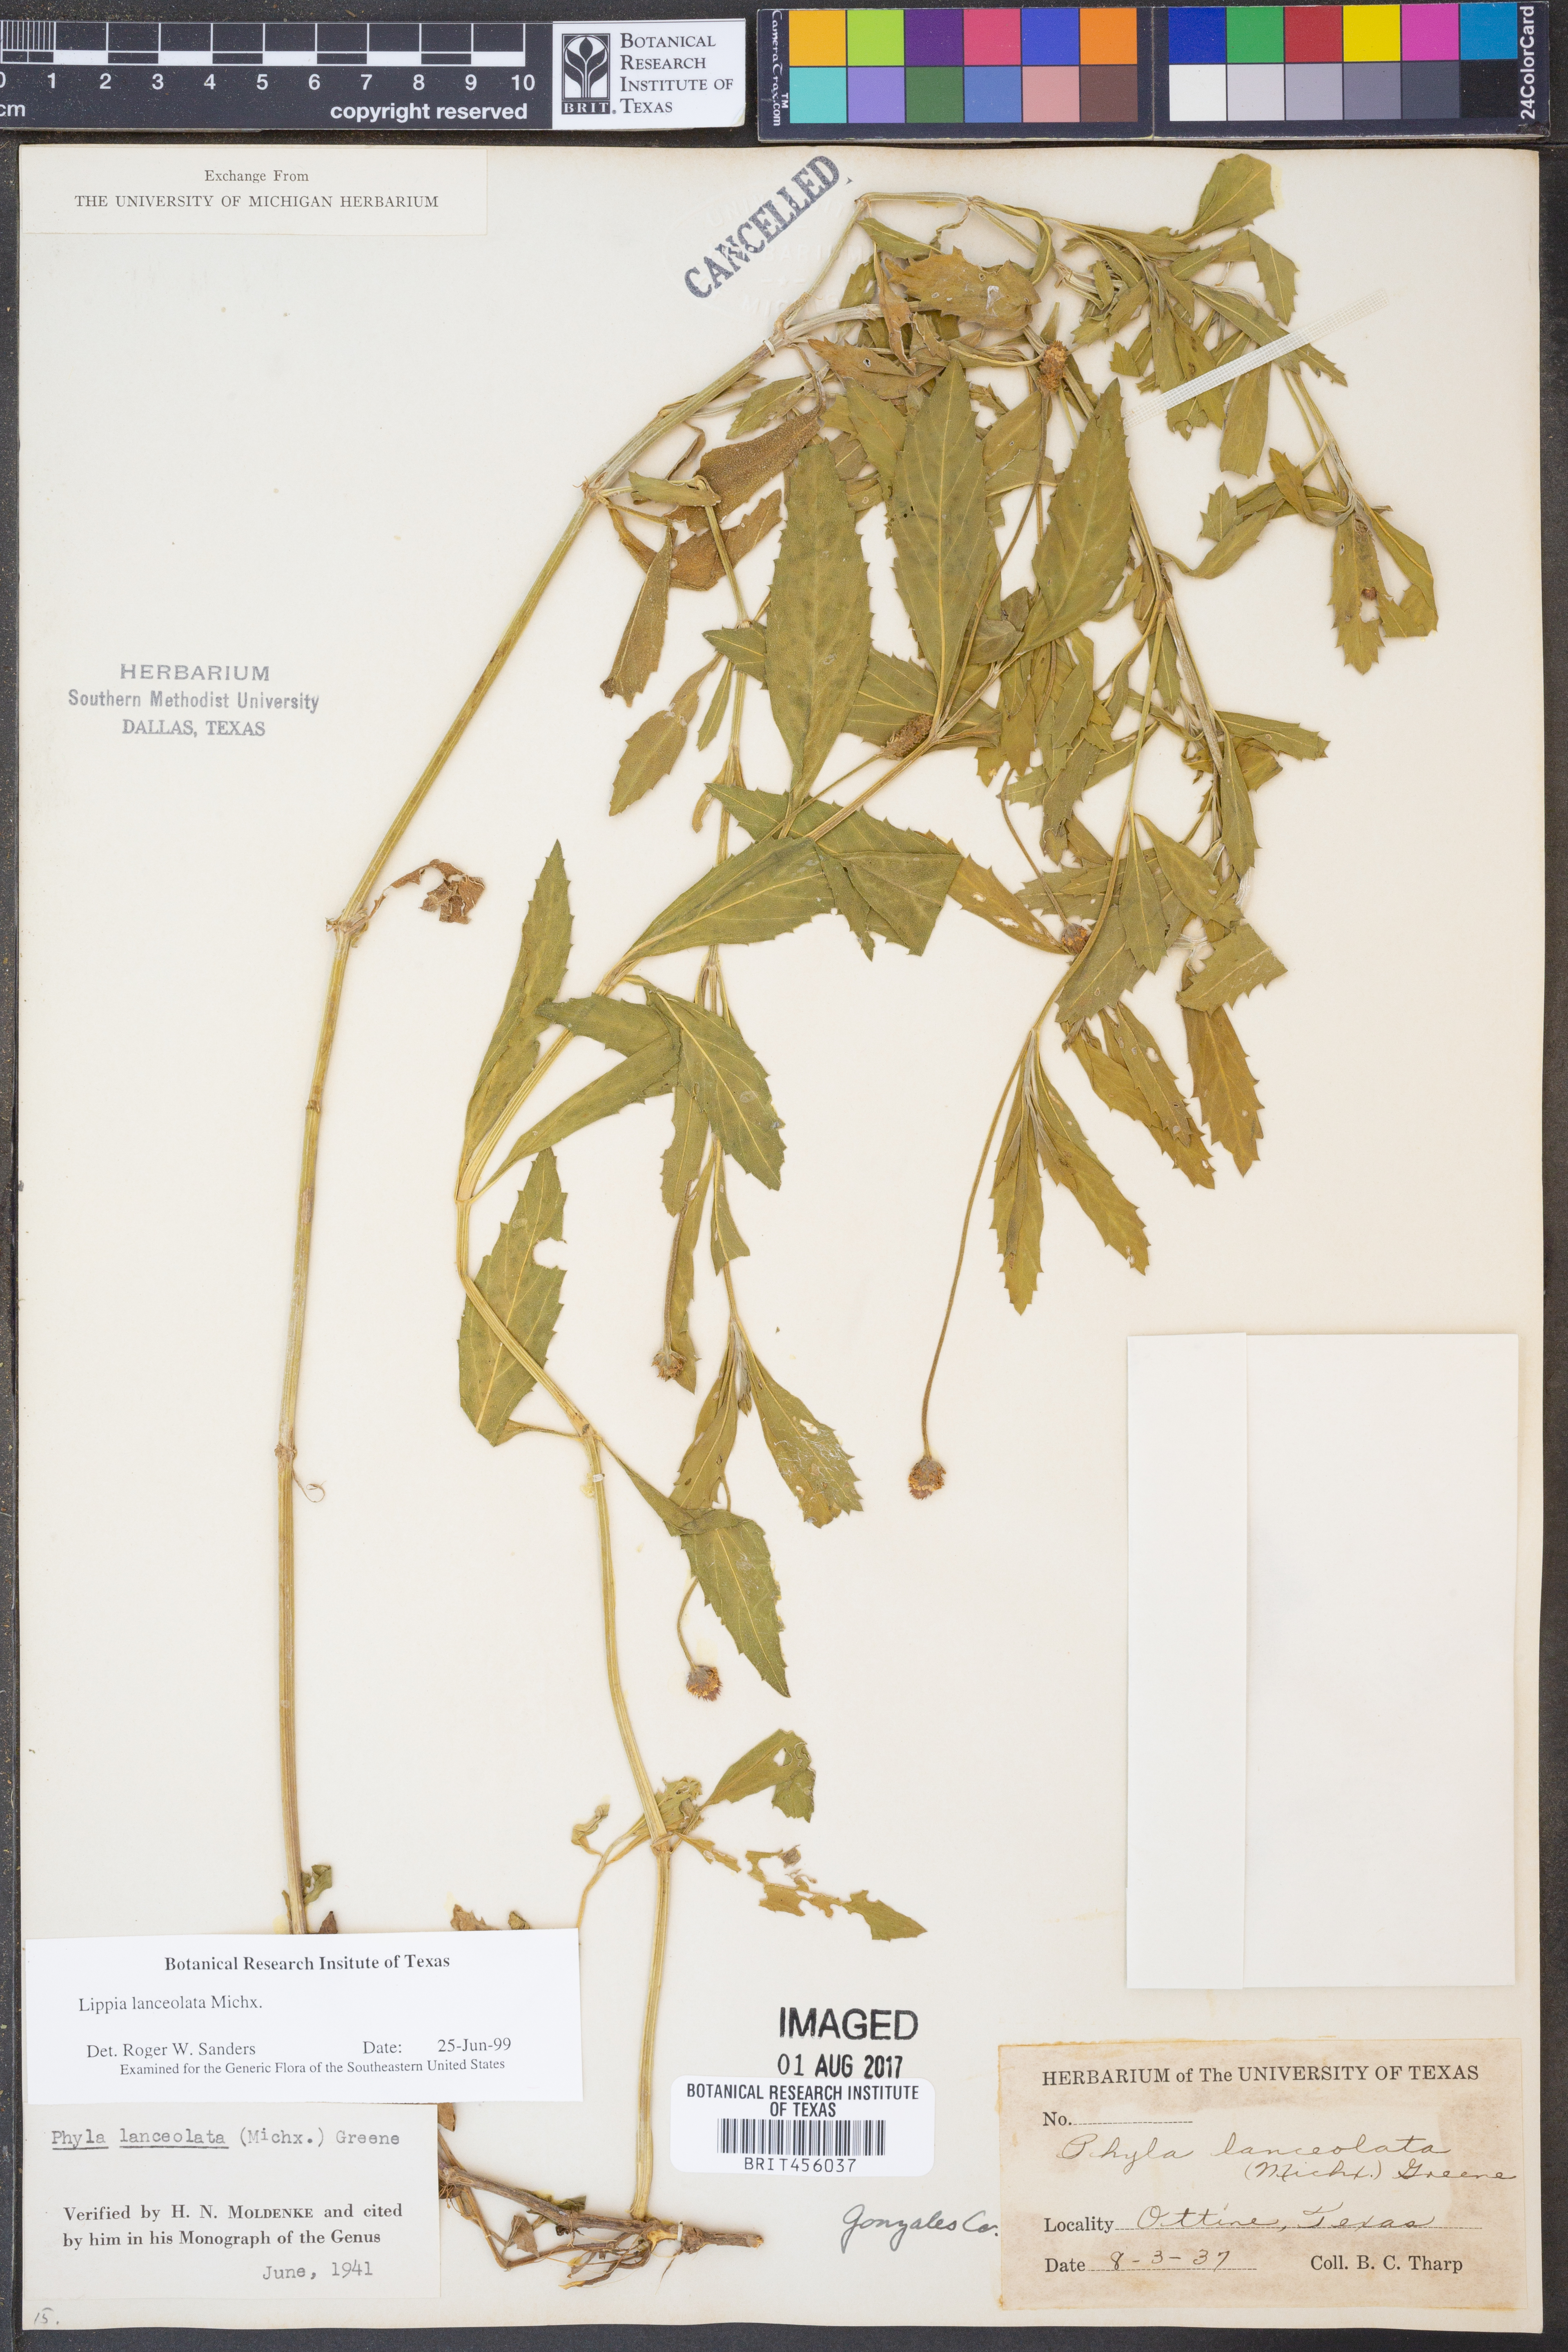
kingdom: Plantae
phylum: Tracheophyta
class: Magnoliopsida
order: Lamiales
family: Verbenaceae
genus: Phyla
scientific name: Phyla lanceolata
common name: Northern fogfruit
